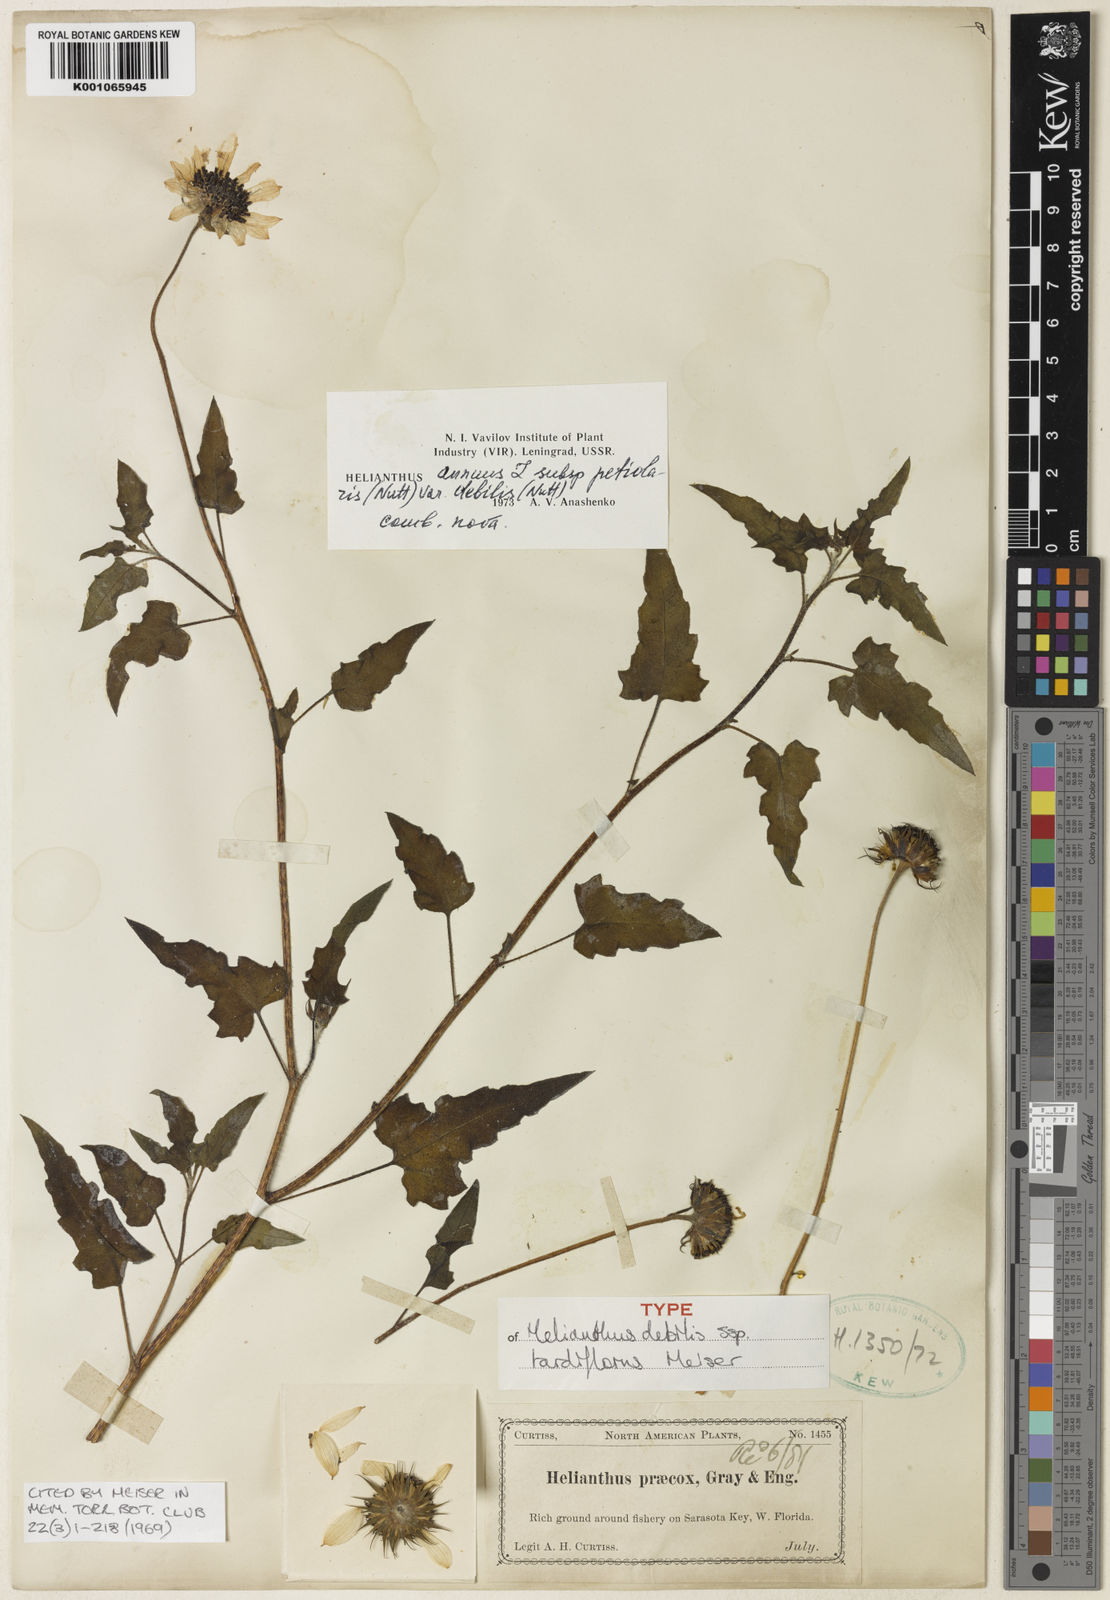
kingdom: Plantae
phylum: Tracheophyta
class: Magnoliopsida
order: Asterales
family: Asteraceae
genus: Helianthus
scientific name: Helianthus debilis
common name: Weak sunflower
